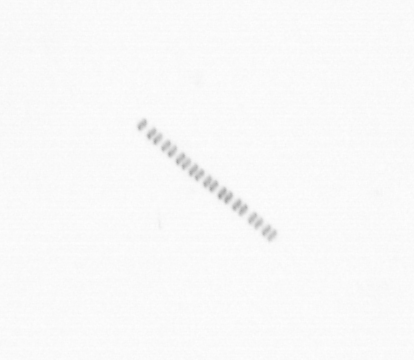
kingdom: Chromista
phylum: Ochrophyta
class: Bacillariophyceae
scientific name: Bacillariophyceae
